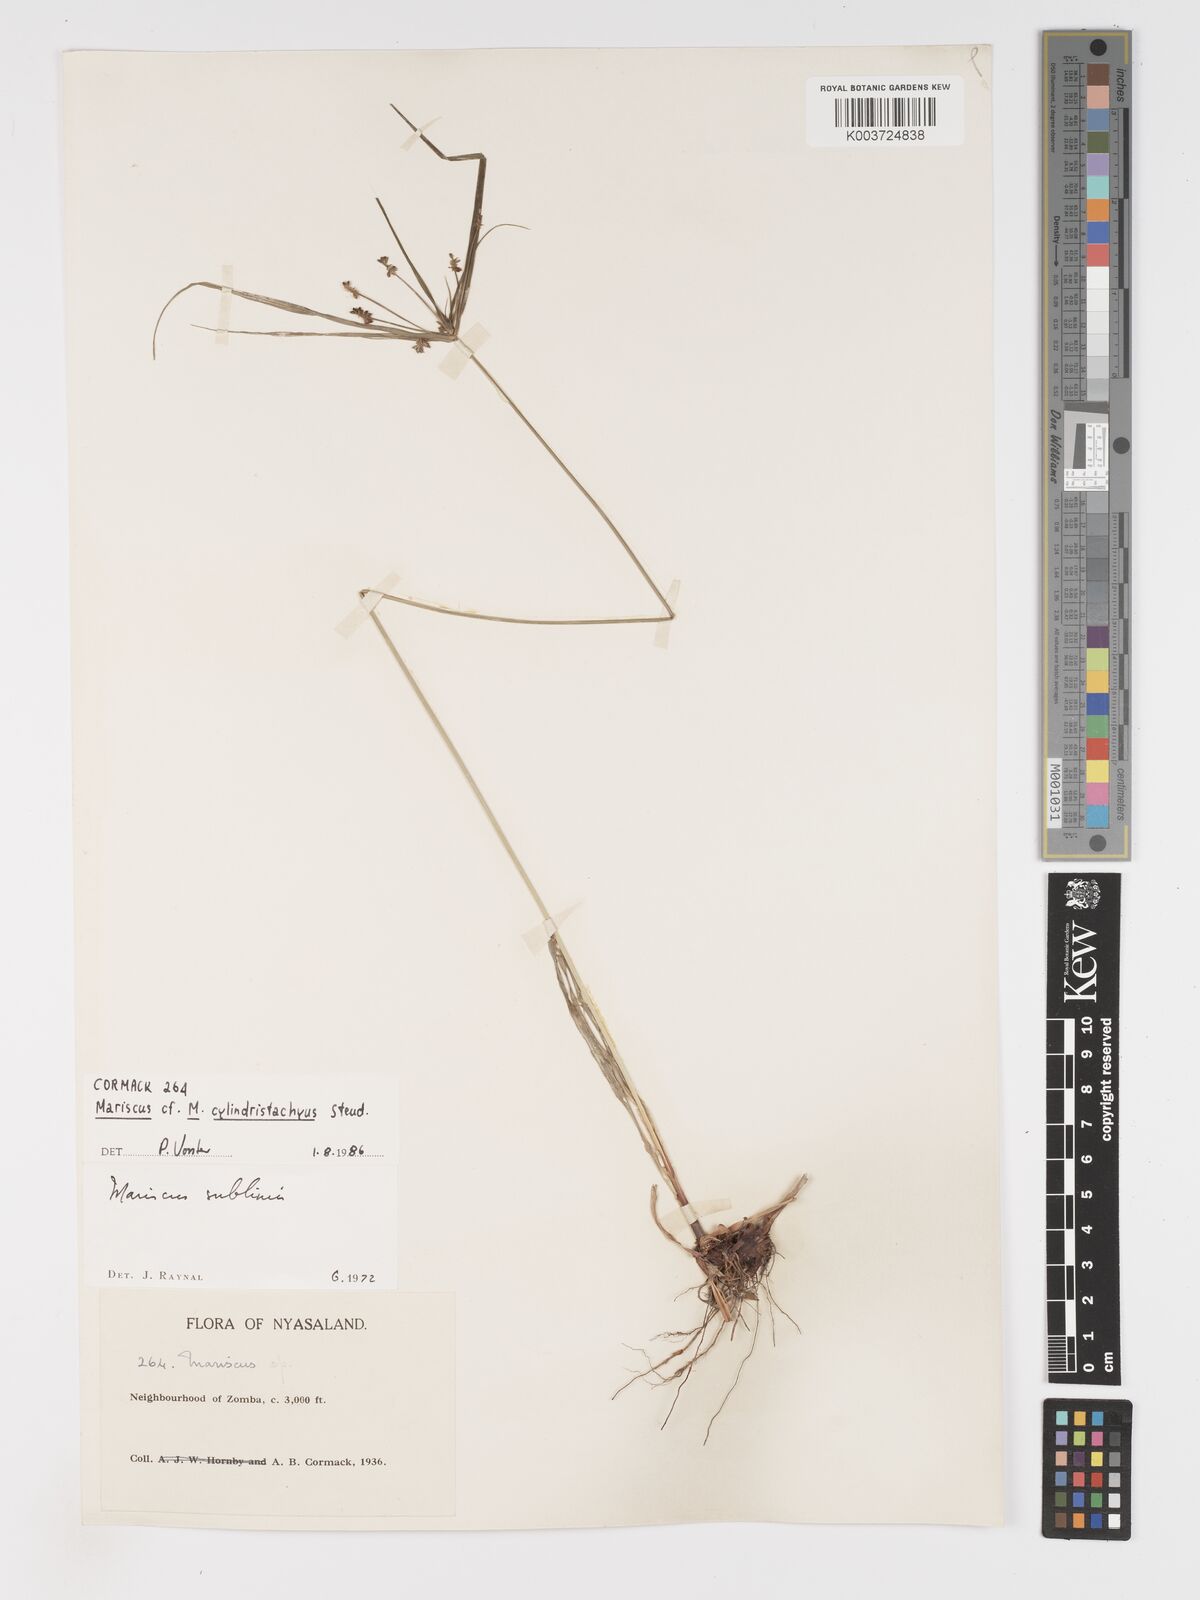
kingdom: Plantae
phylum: Tracheophyta
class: Liliopsida
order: Poales
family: Cyperaceae
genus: Cyperus
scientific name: Cyperus cyperoides
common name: Pacific island flat sedge
